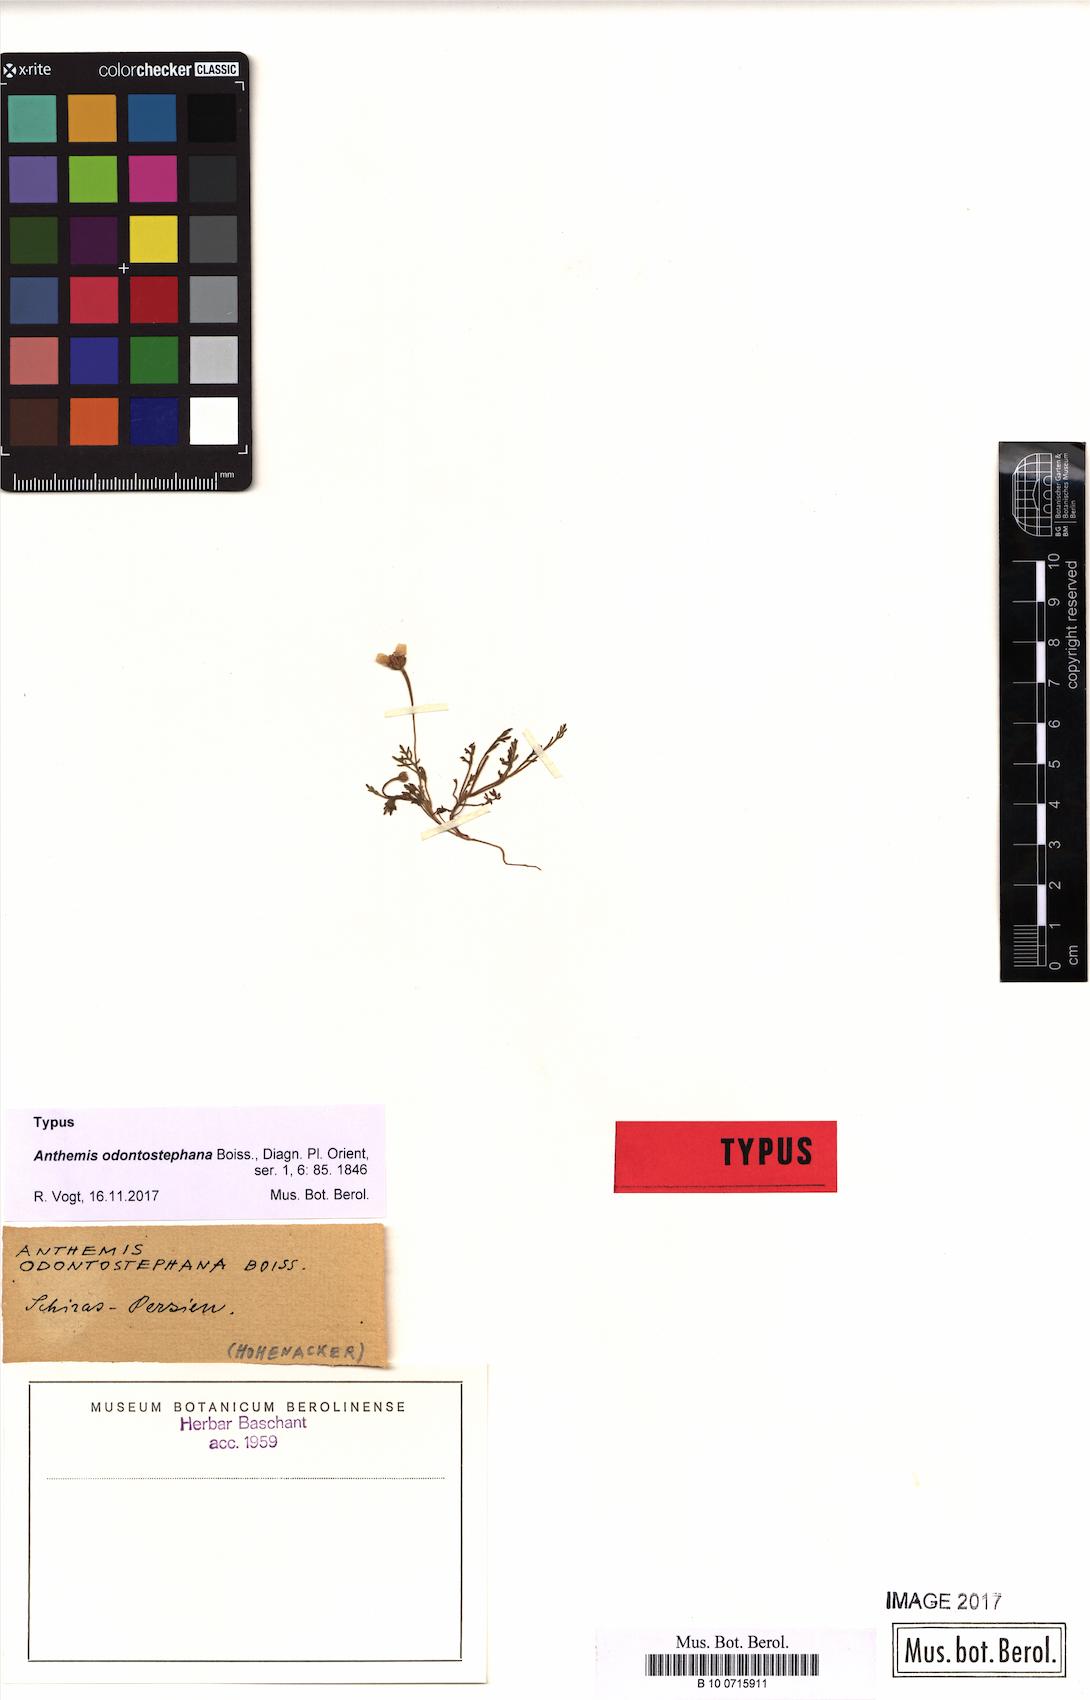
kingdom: Plantae
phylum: Tracheophyta
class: Magnoliopsida
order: Asterales
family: Asteraceae
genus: Anthemis
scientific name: Anthemis odontostephana
